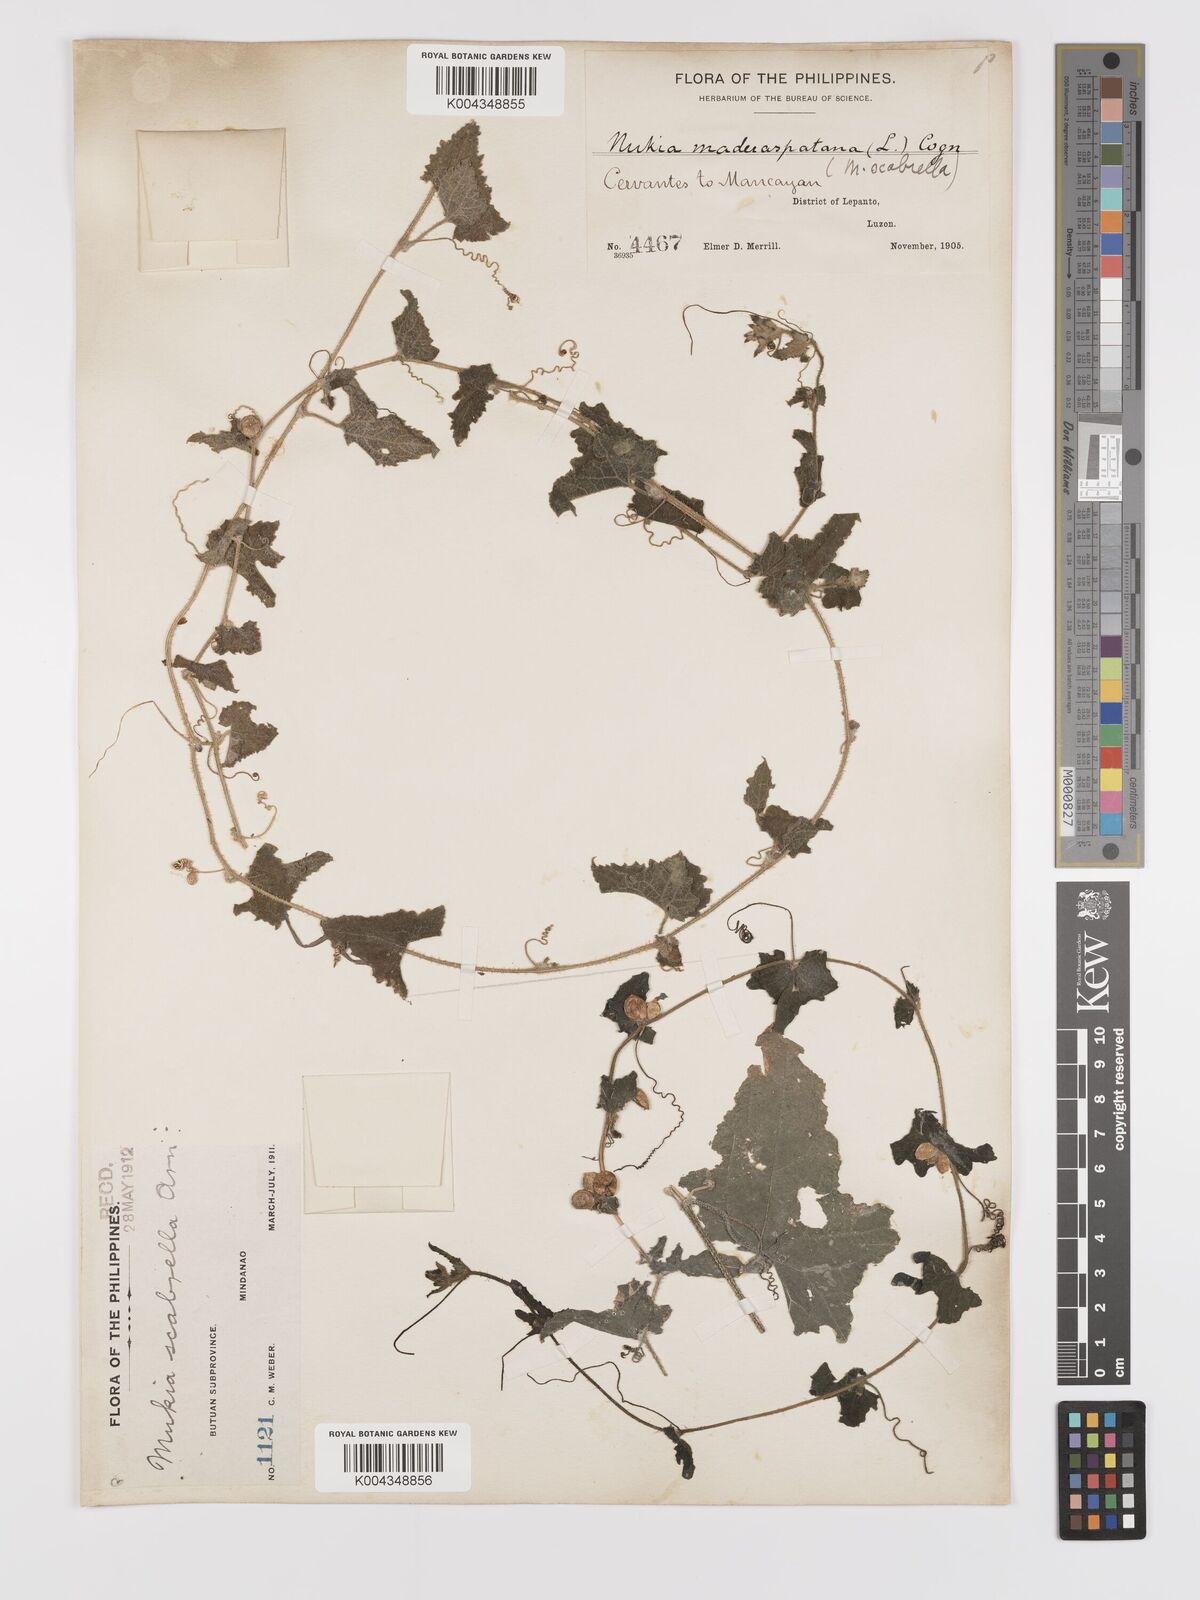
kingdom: Plantae
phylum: Tracheophyta
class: Magnoliopsida
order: Cucurbitales
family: Cucurbitaceae
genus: Cucumis
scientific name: Cucumis maderaspatanus
